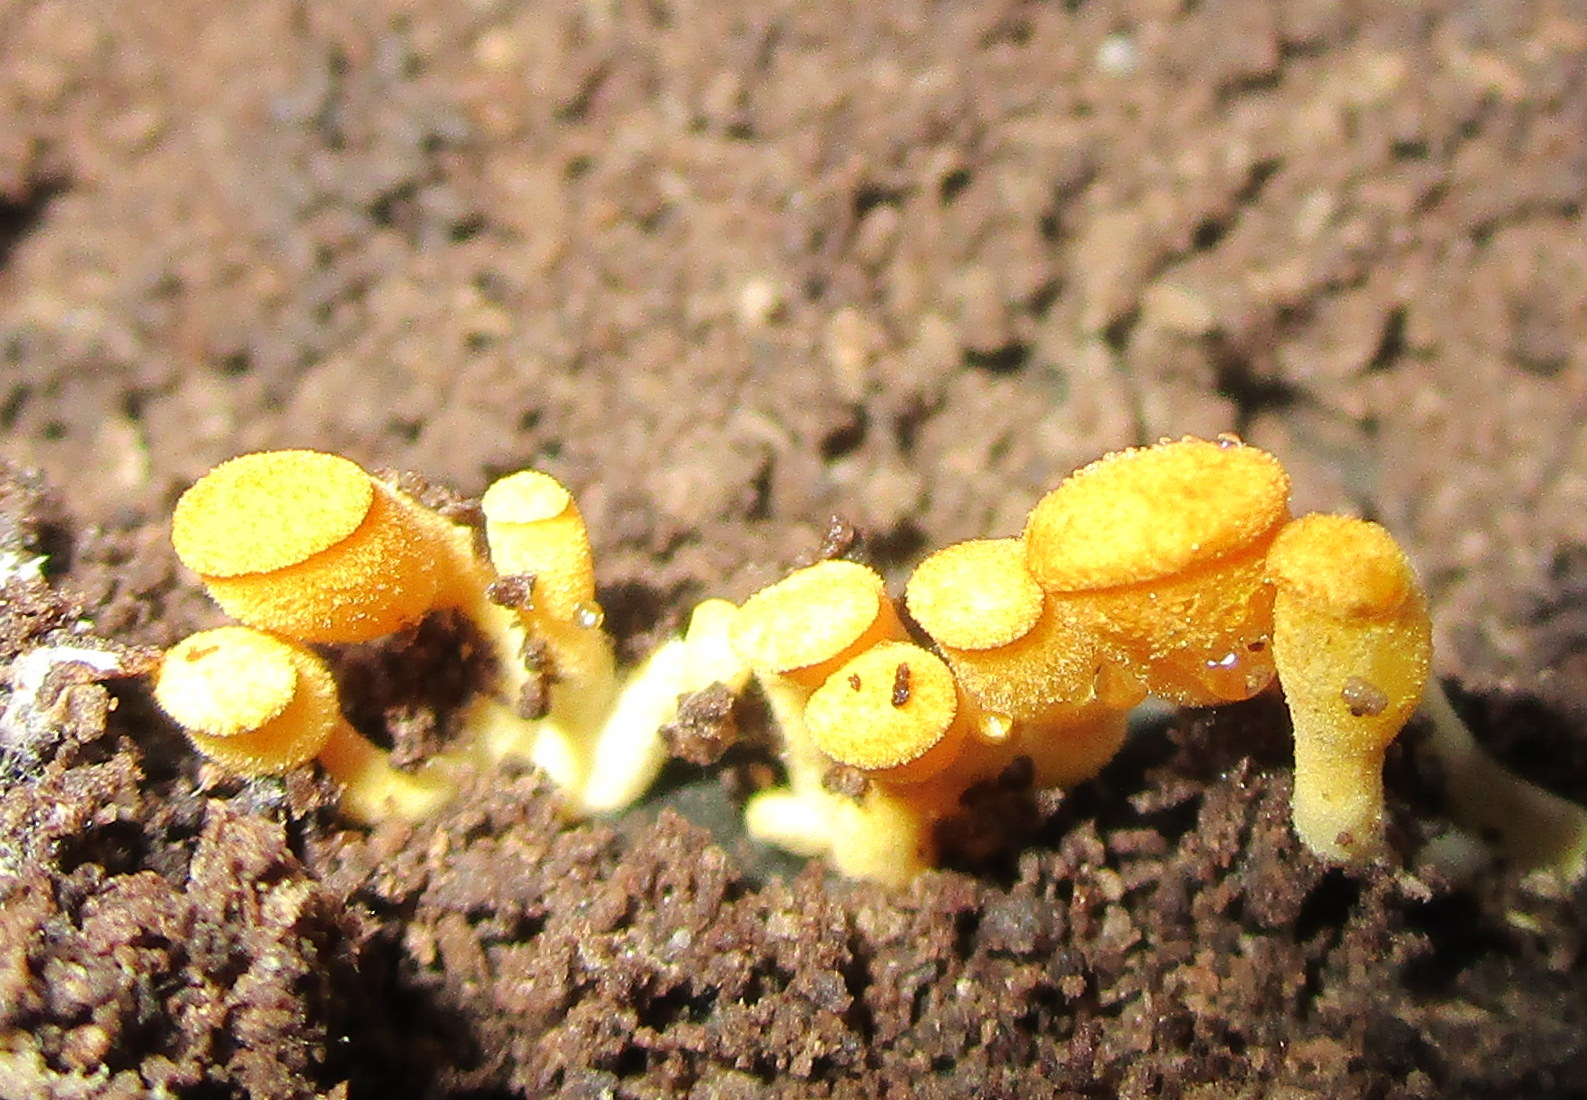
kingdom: Fungi
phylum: Basidiomycota
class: Agaricomycetes
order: Agaricales
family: Sarcomyxaceae
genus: Sarcomyxa
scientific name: Sarcomyxa serotina
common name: gummihat
